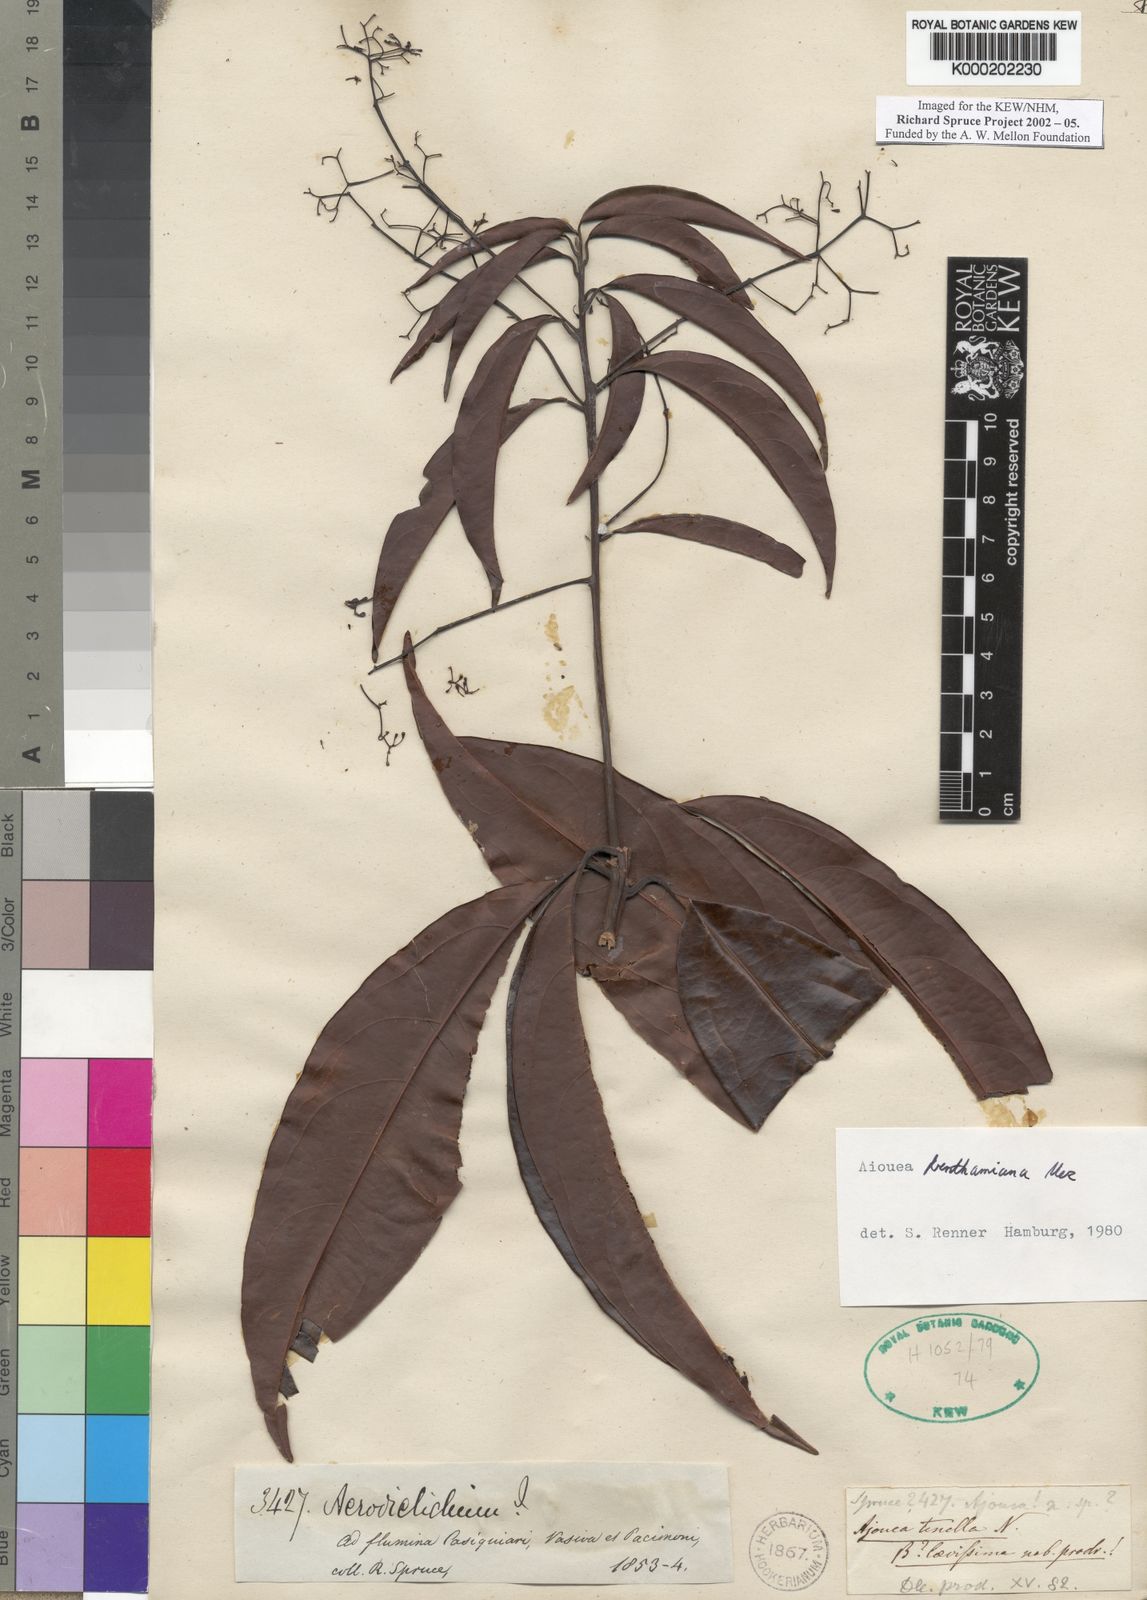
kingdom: Plantae
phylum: Tracheophyta
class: Magnoliopsida
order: Laurales
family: Lauraceae
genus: Aiouea
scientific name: Aiouea benthamiana
